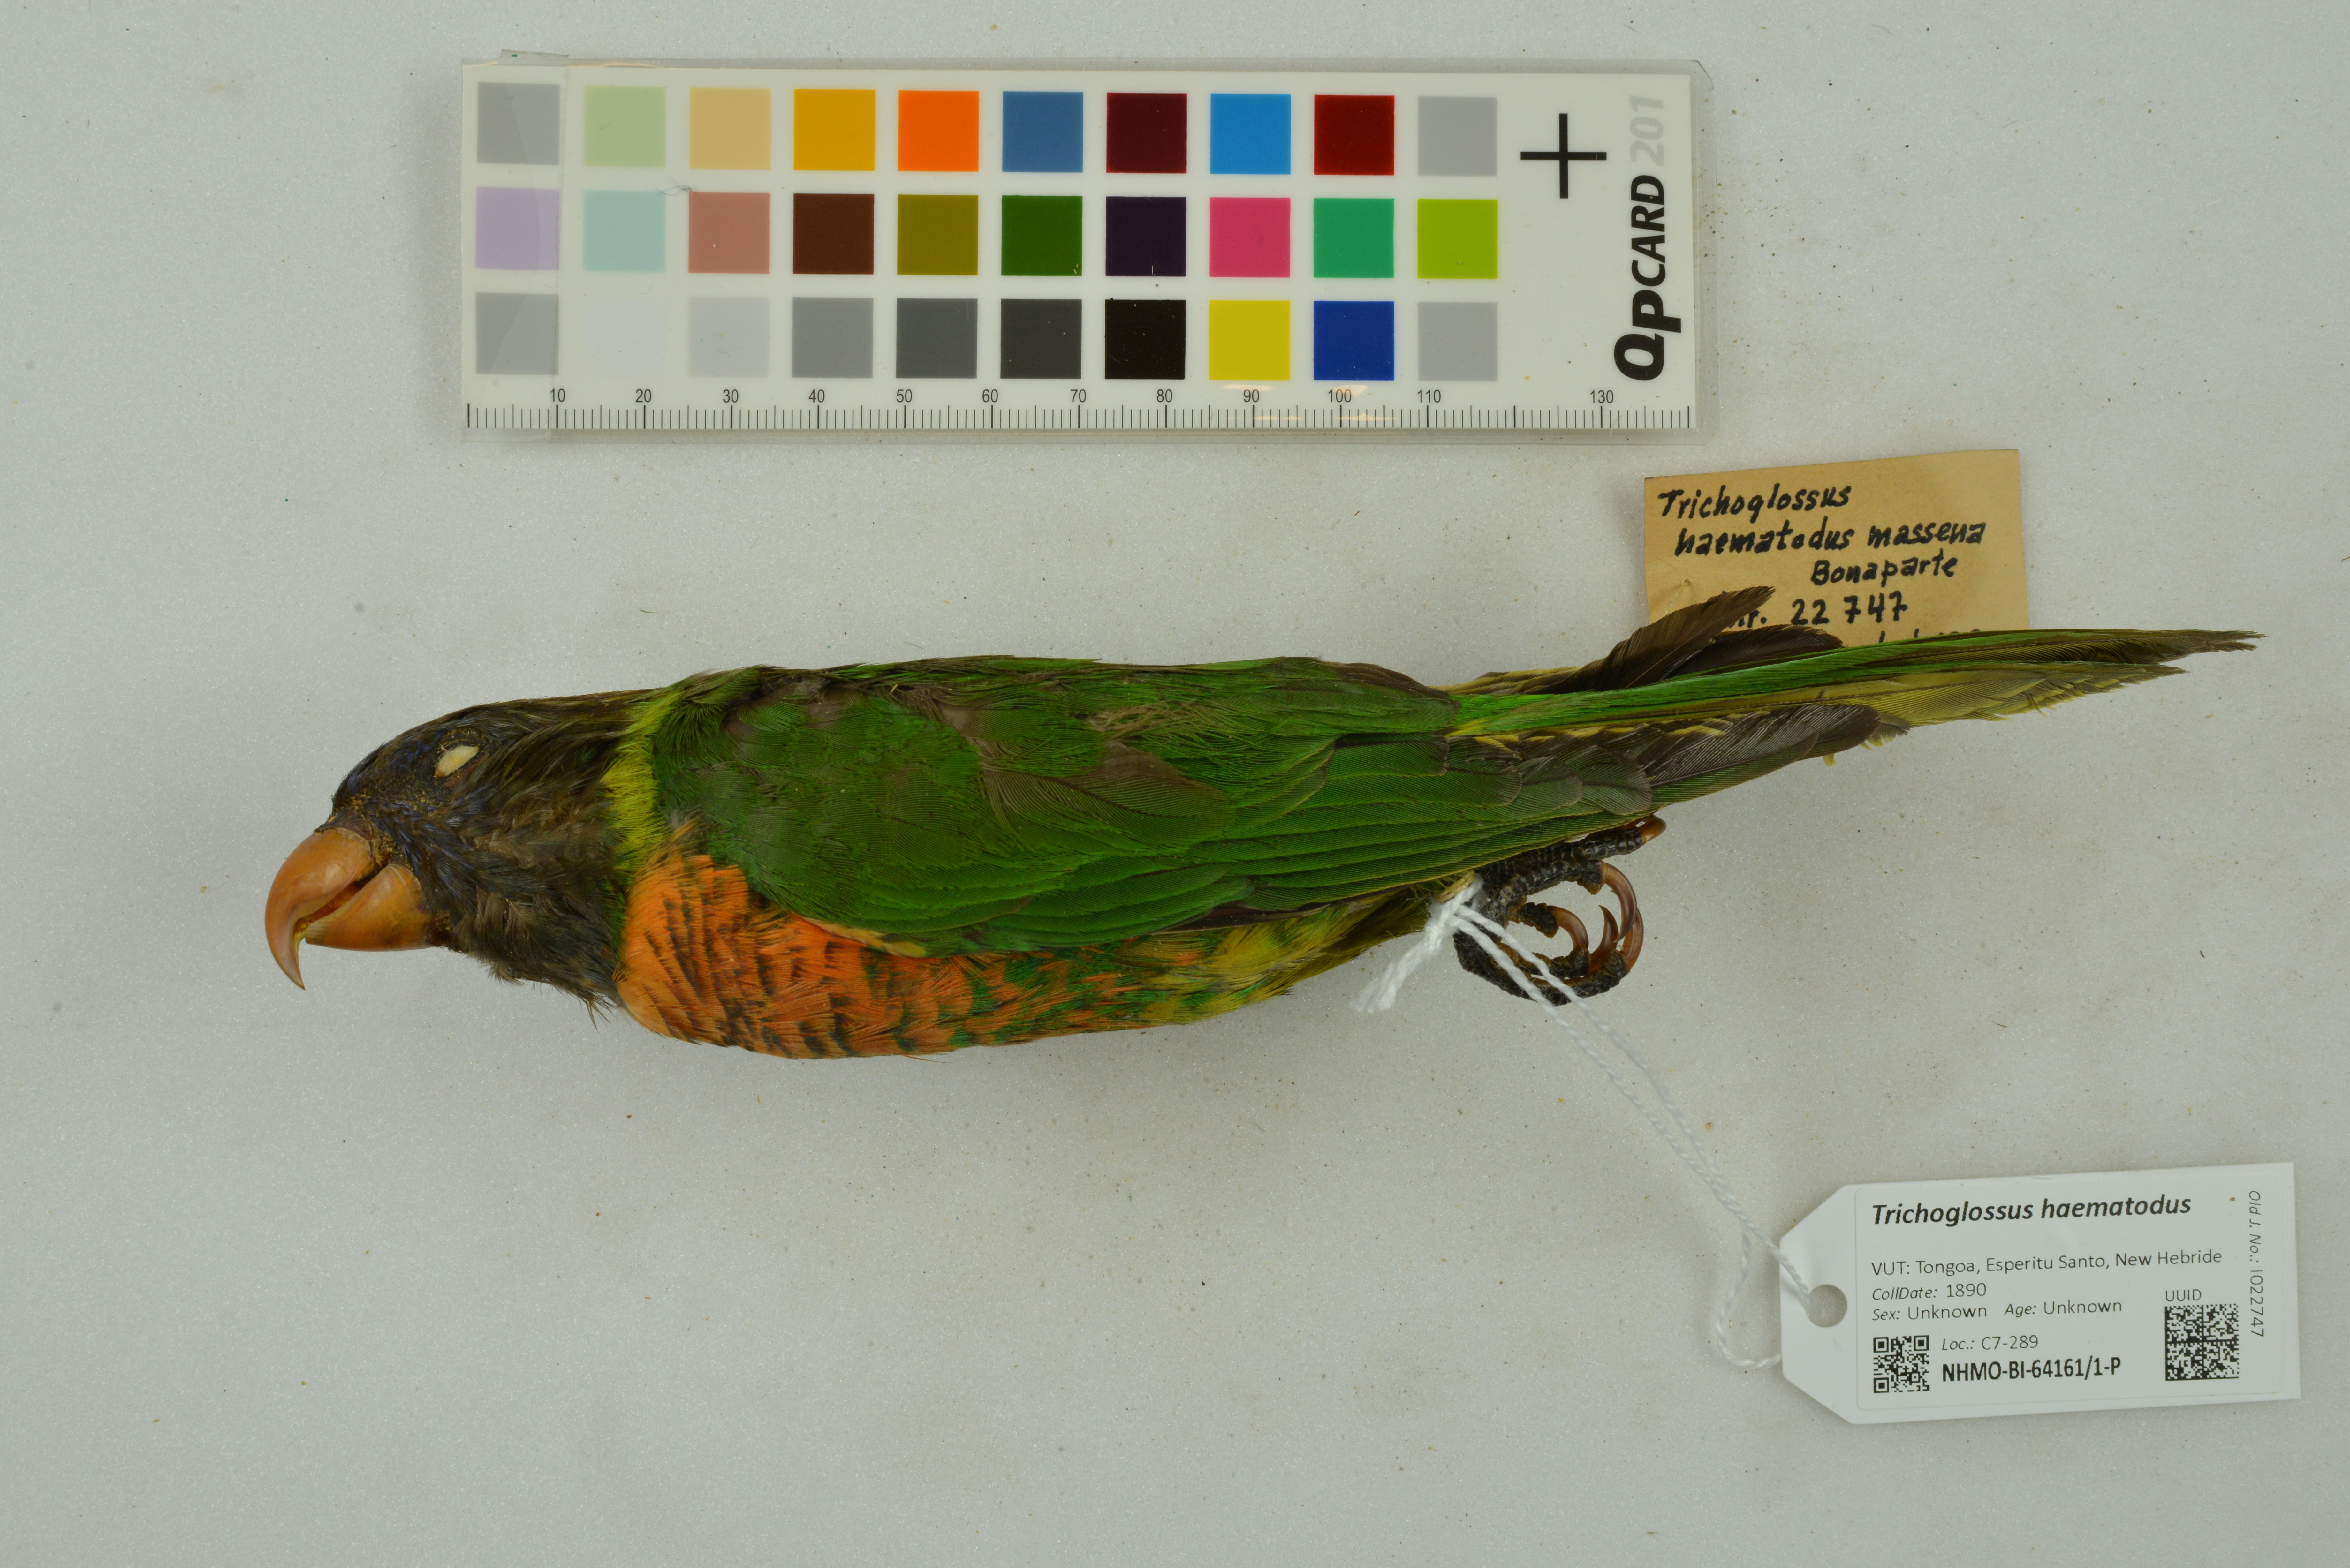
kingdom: Animalia
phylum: Chordata
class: Aves
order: Psittaciformes
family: Psittacidae
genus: Trichoglossus
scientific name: Trichoglossus haematodus
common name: Coconut lorikeet
